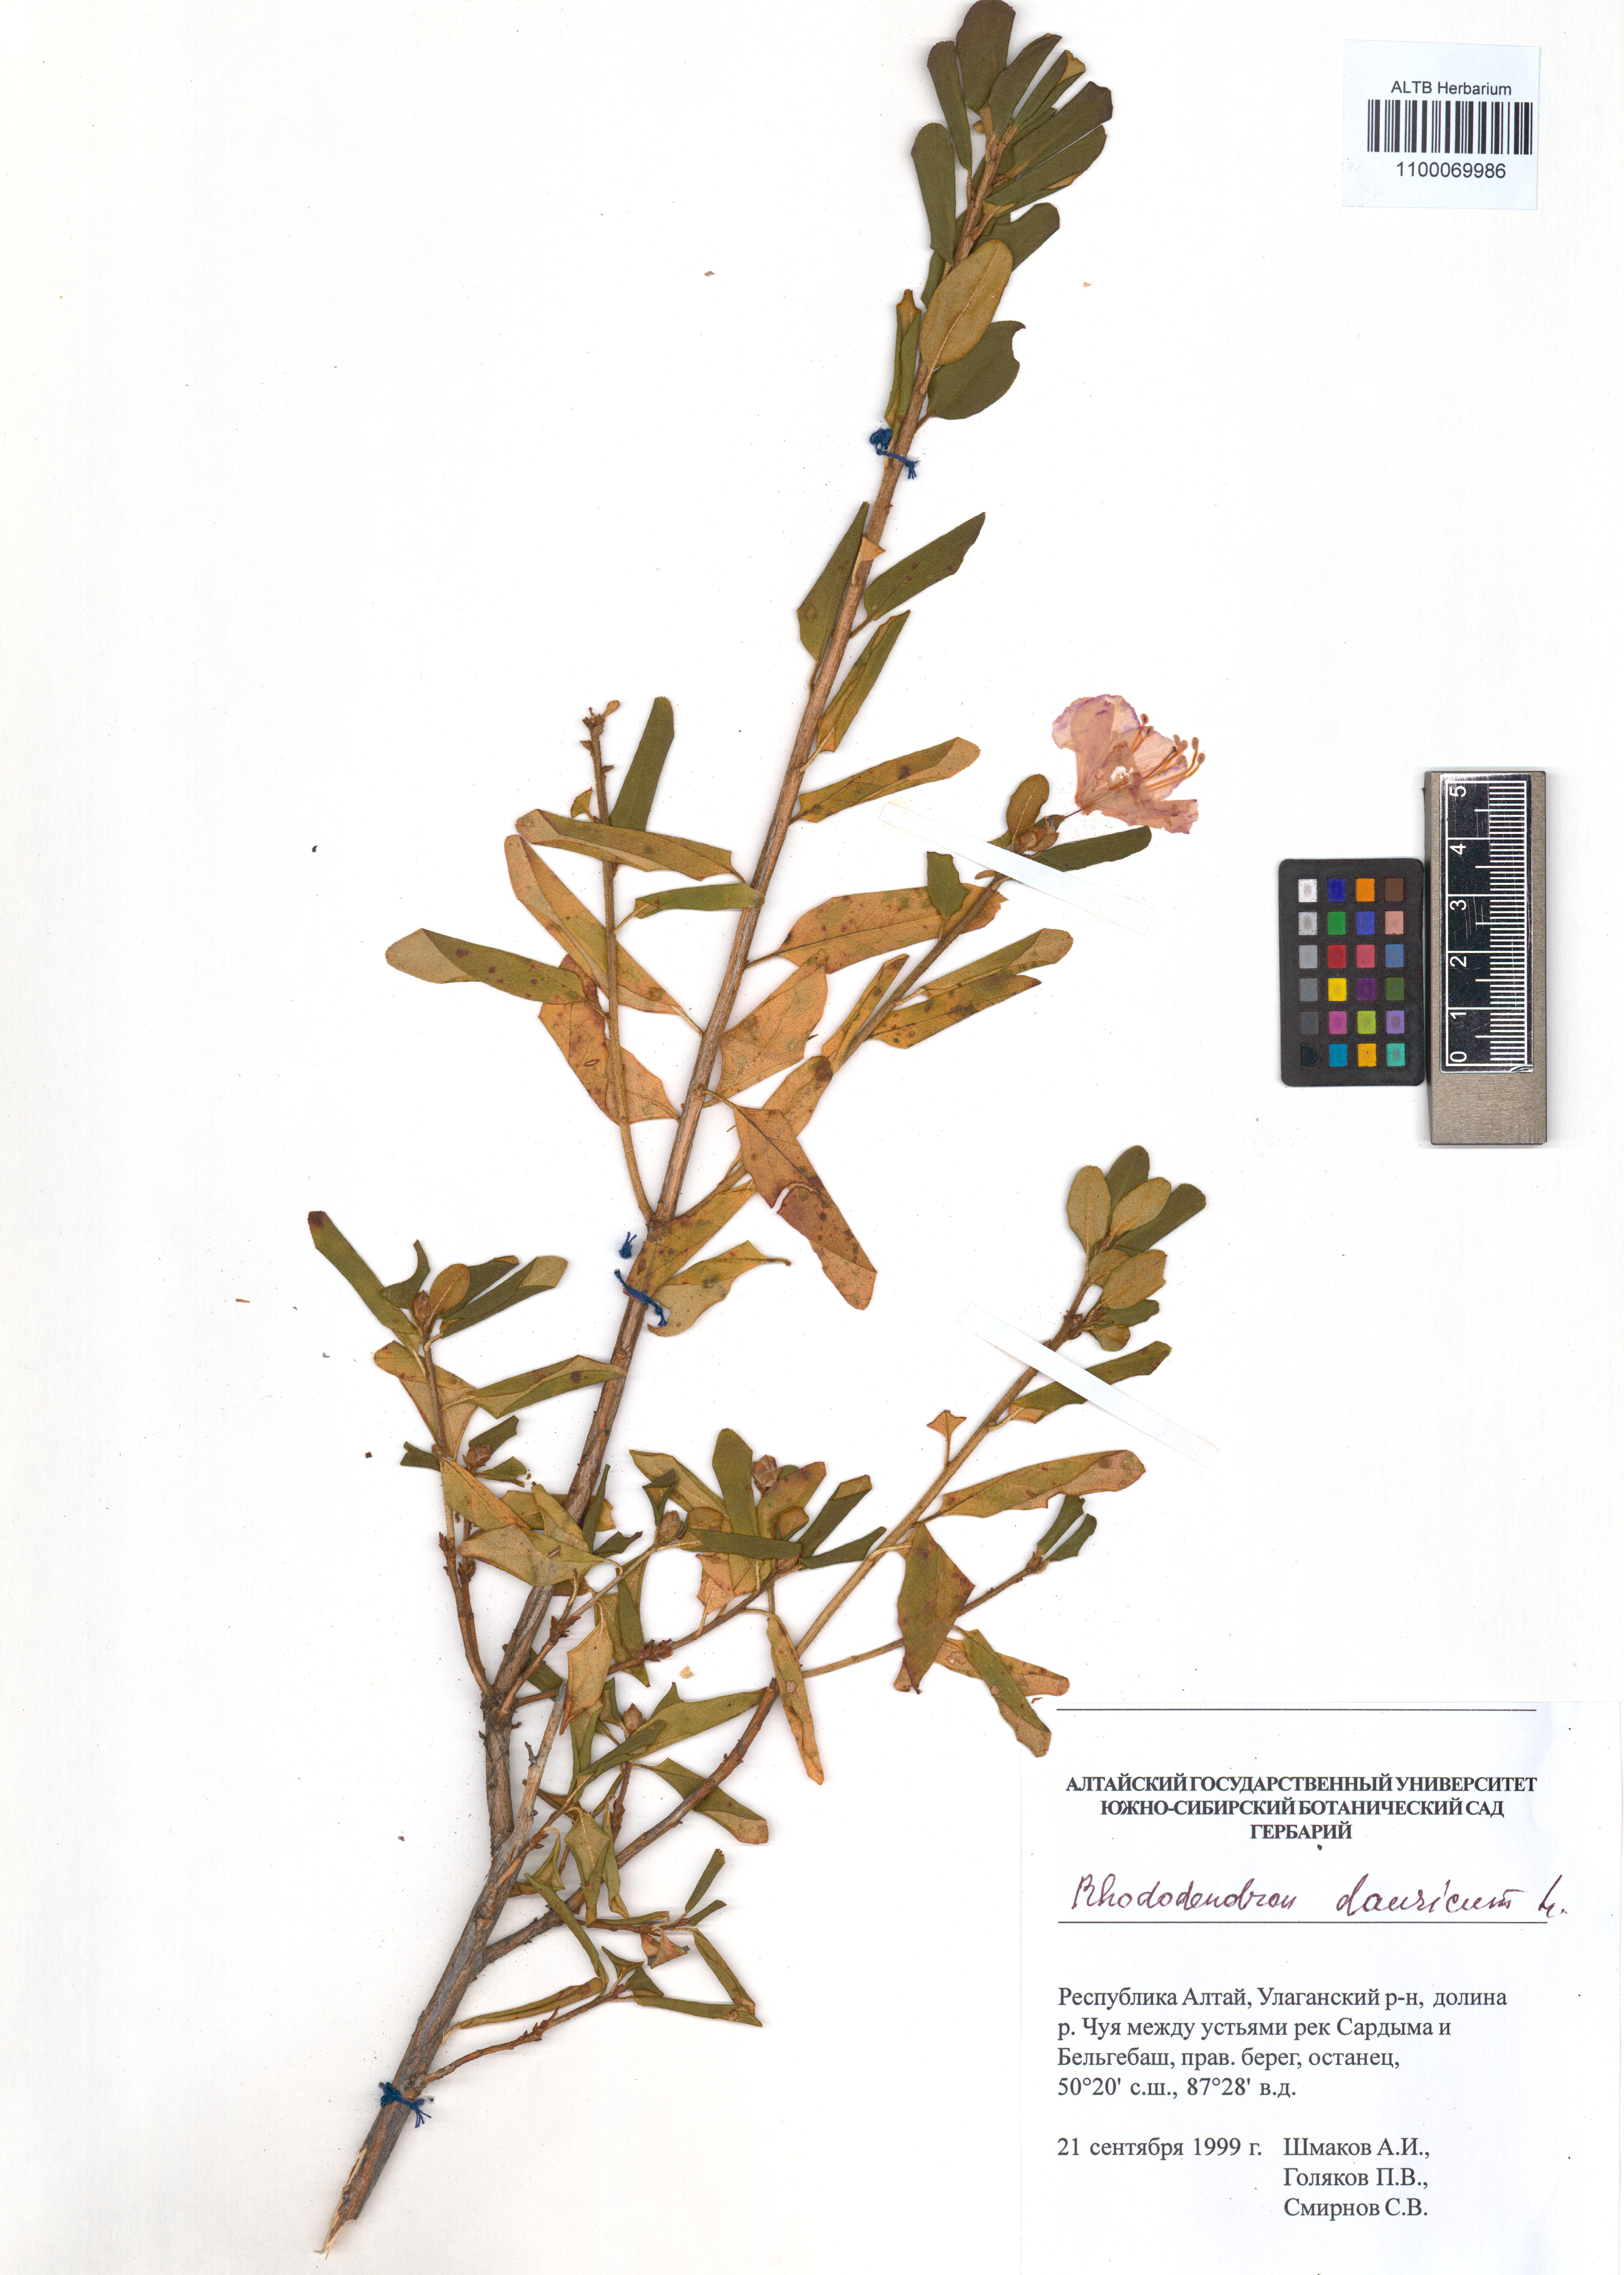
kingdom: Plantae
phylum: Tracheophyta
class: Magnoliopsida
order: Ericales
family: Ericaceae
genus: Rhododendron
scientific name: Rhododendron dauricum
